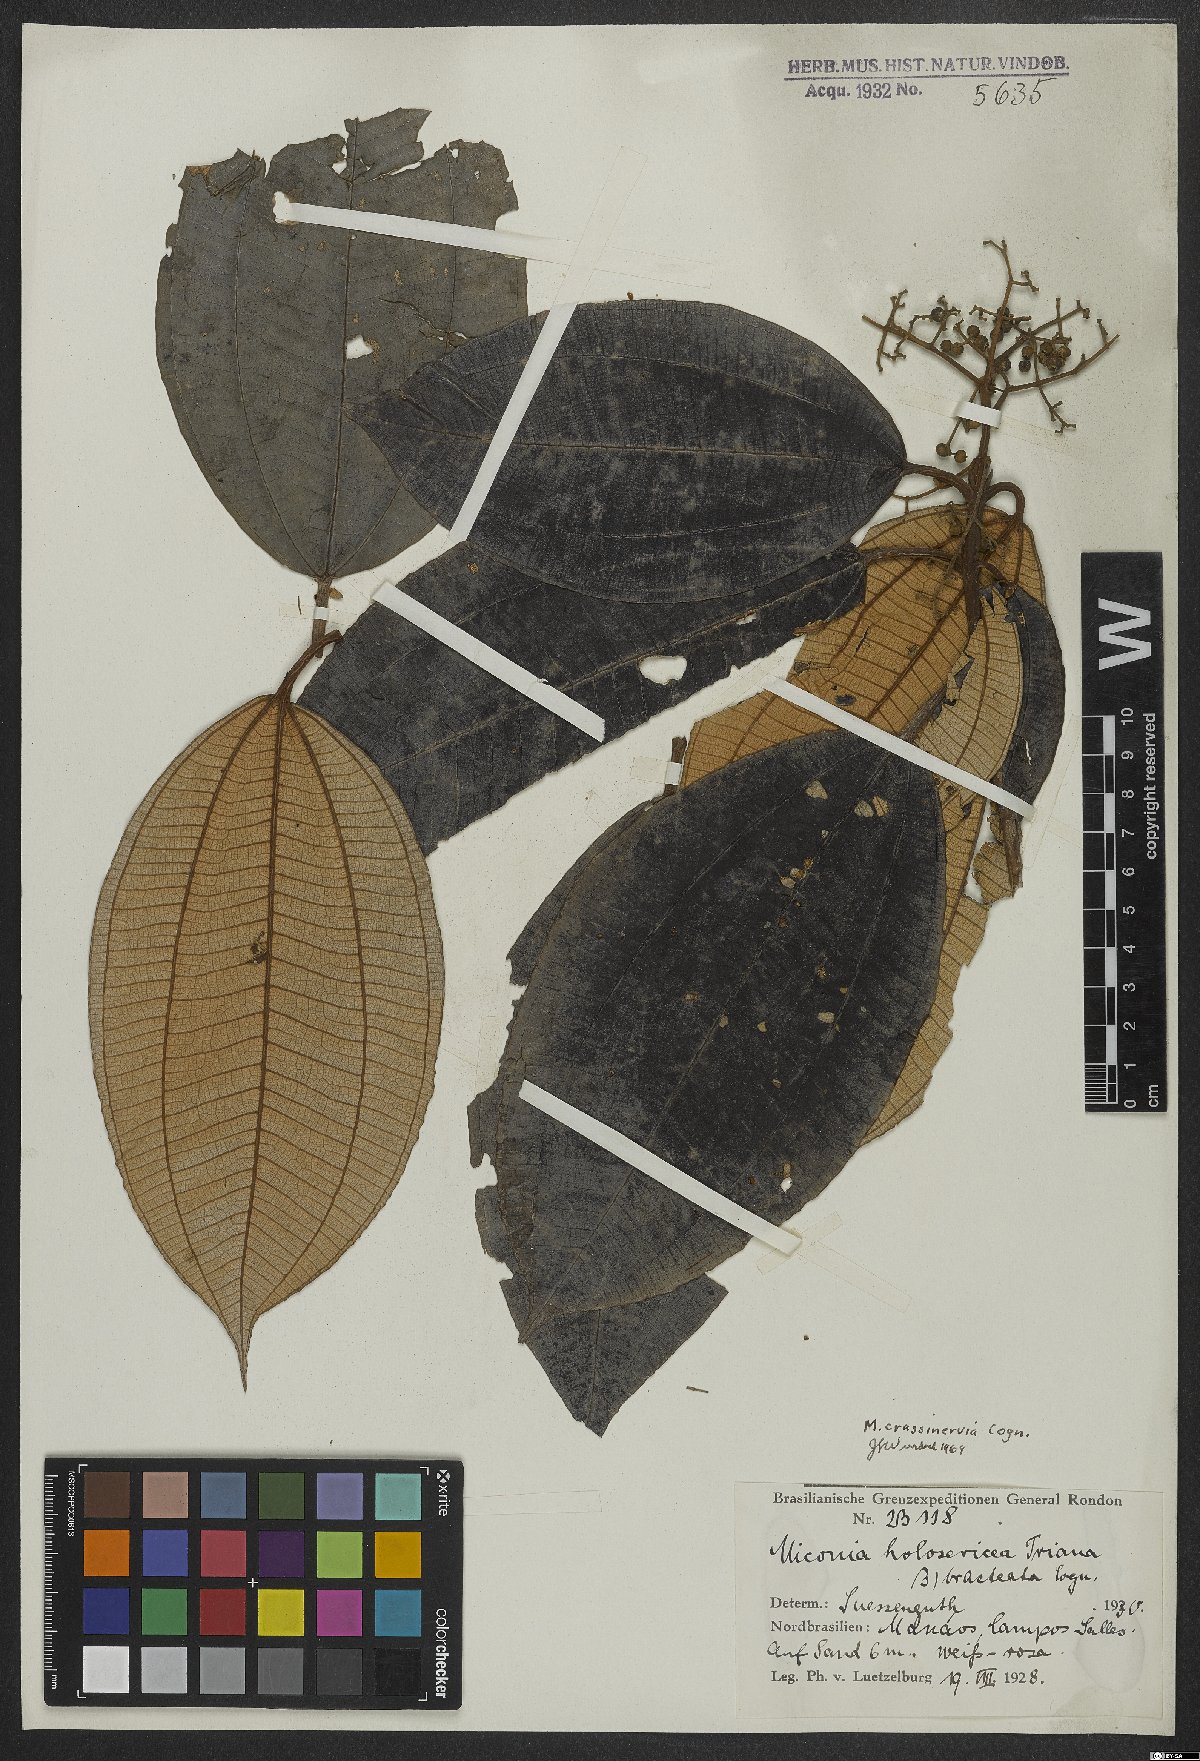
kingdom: Plantae
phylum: Tracheophyta
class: Magnoliopsida
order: Myrtales
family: Melastomataceae
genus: Miconia
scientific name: Miconia crassinervia
